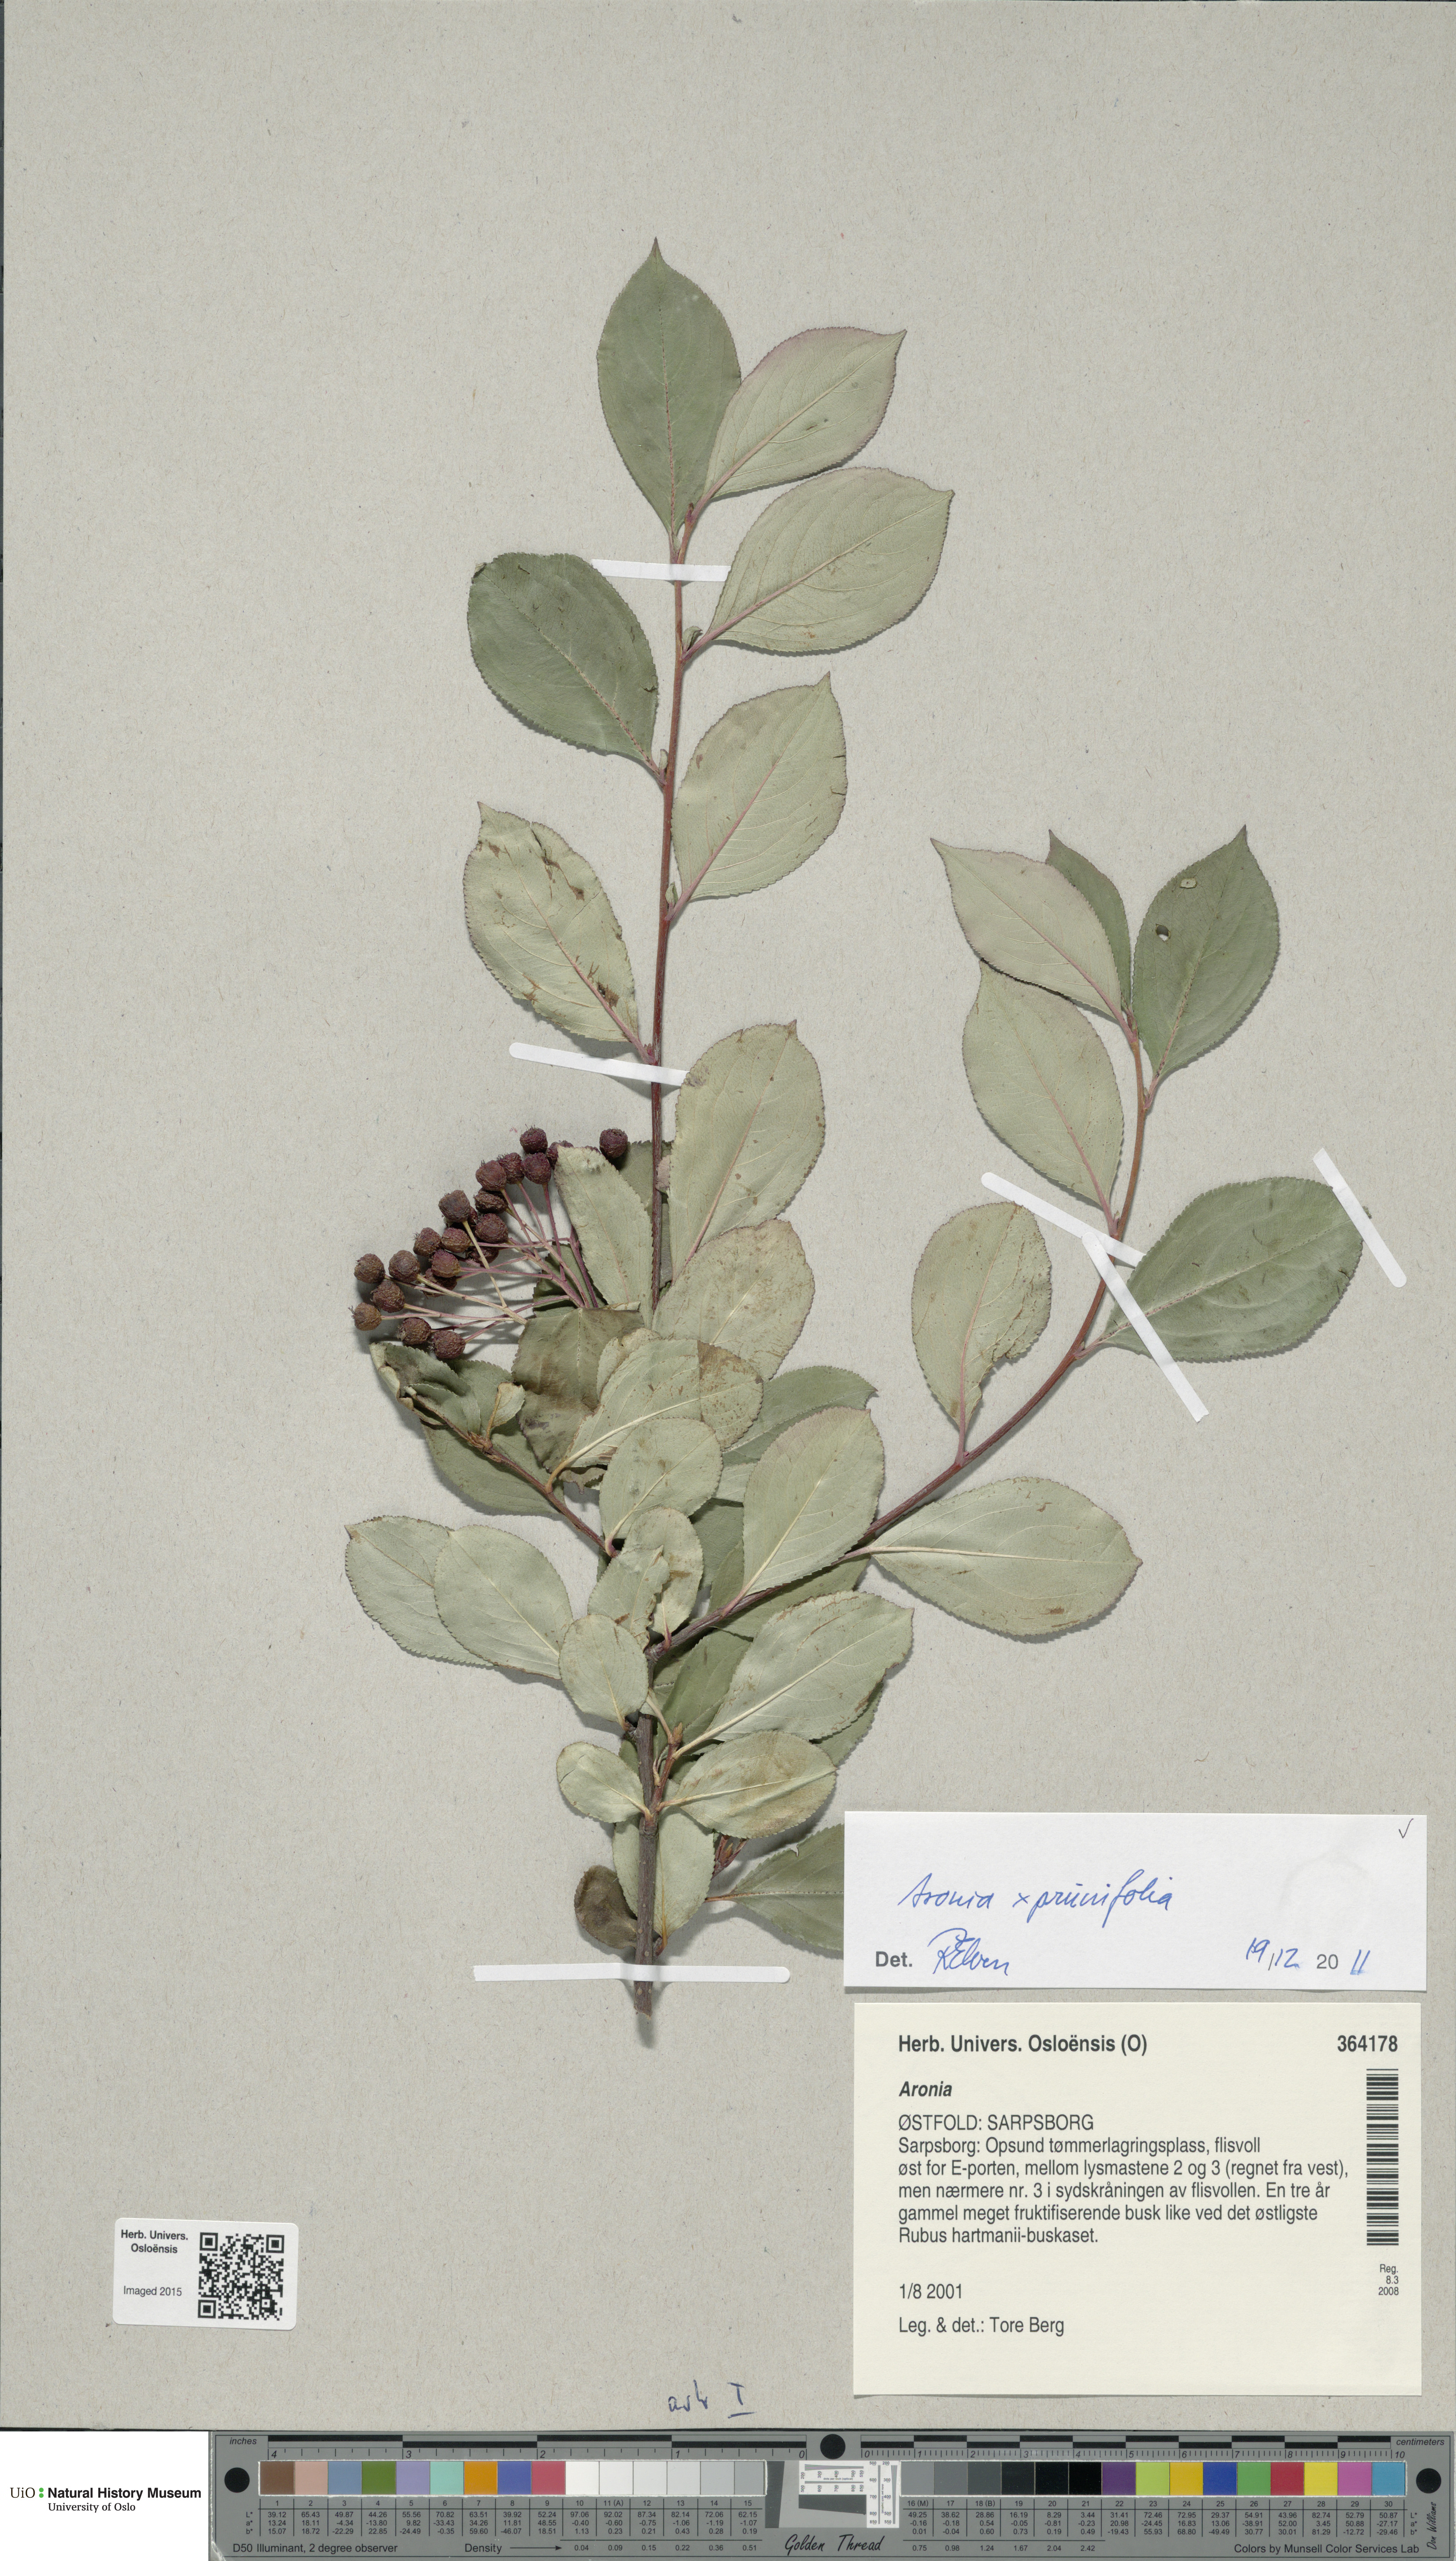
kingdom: Plantae
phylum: Tracheophyta
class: Magnoliopsida
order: Rosales
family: Rosaceae
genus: Aronia
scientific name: Aronia melanocarpa
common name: Black chokeberry
